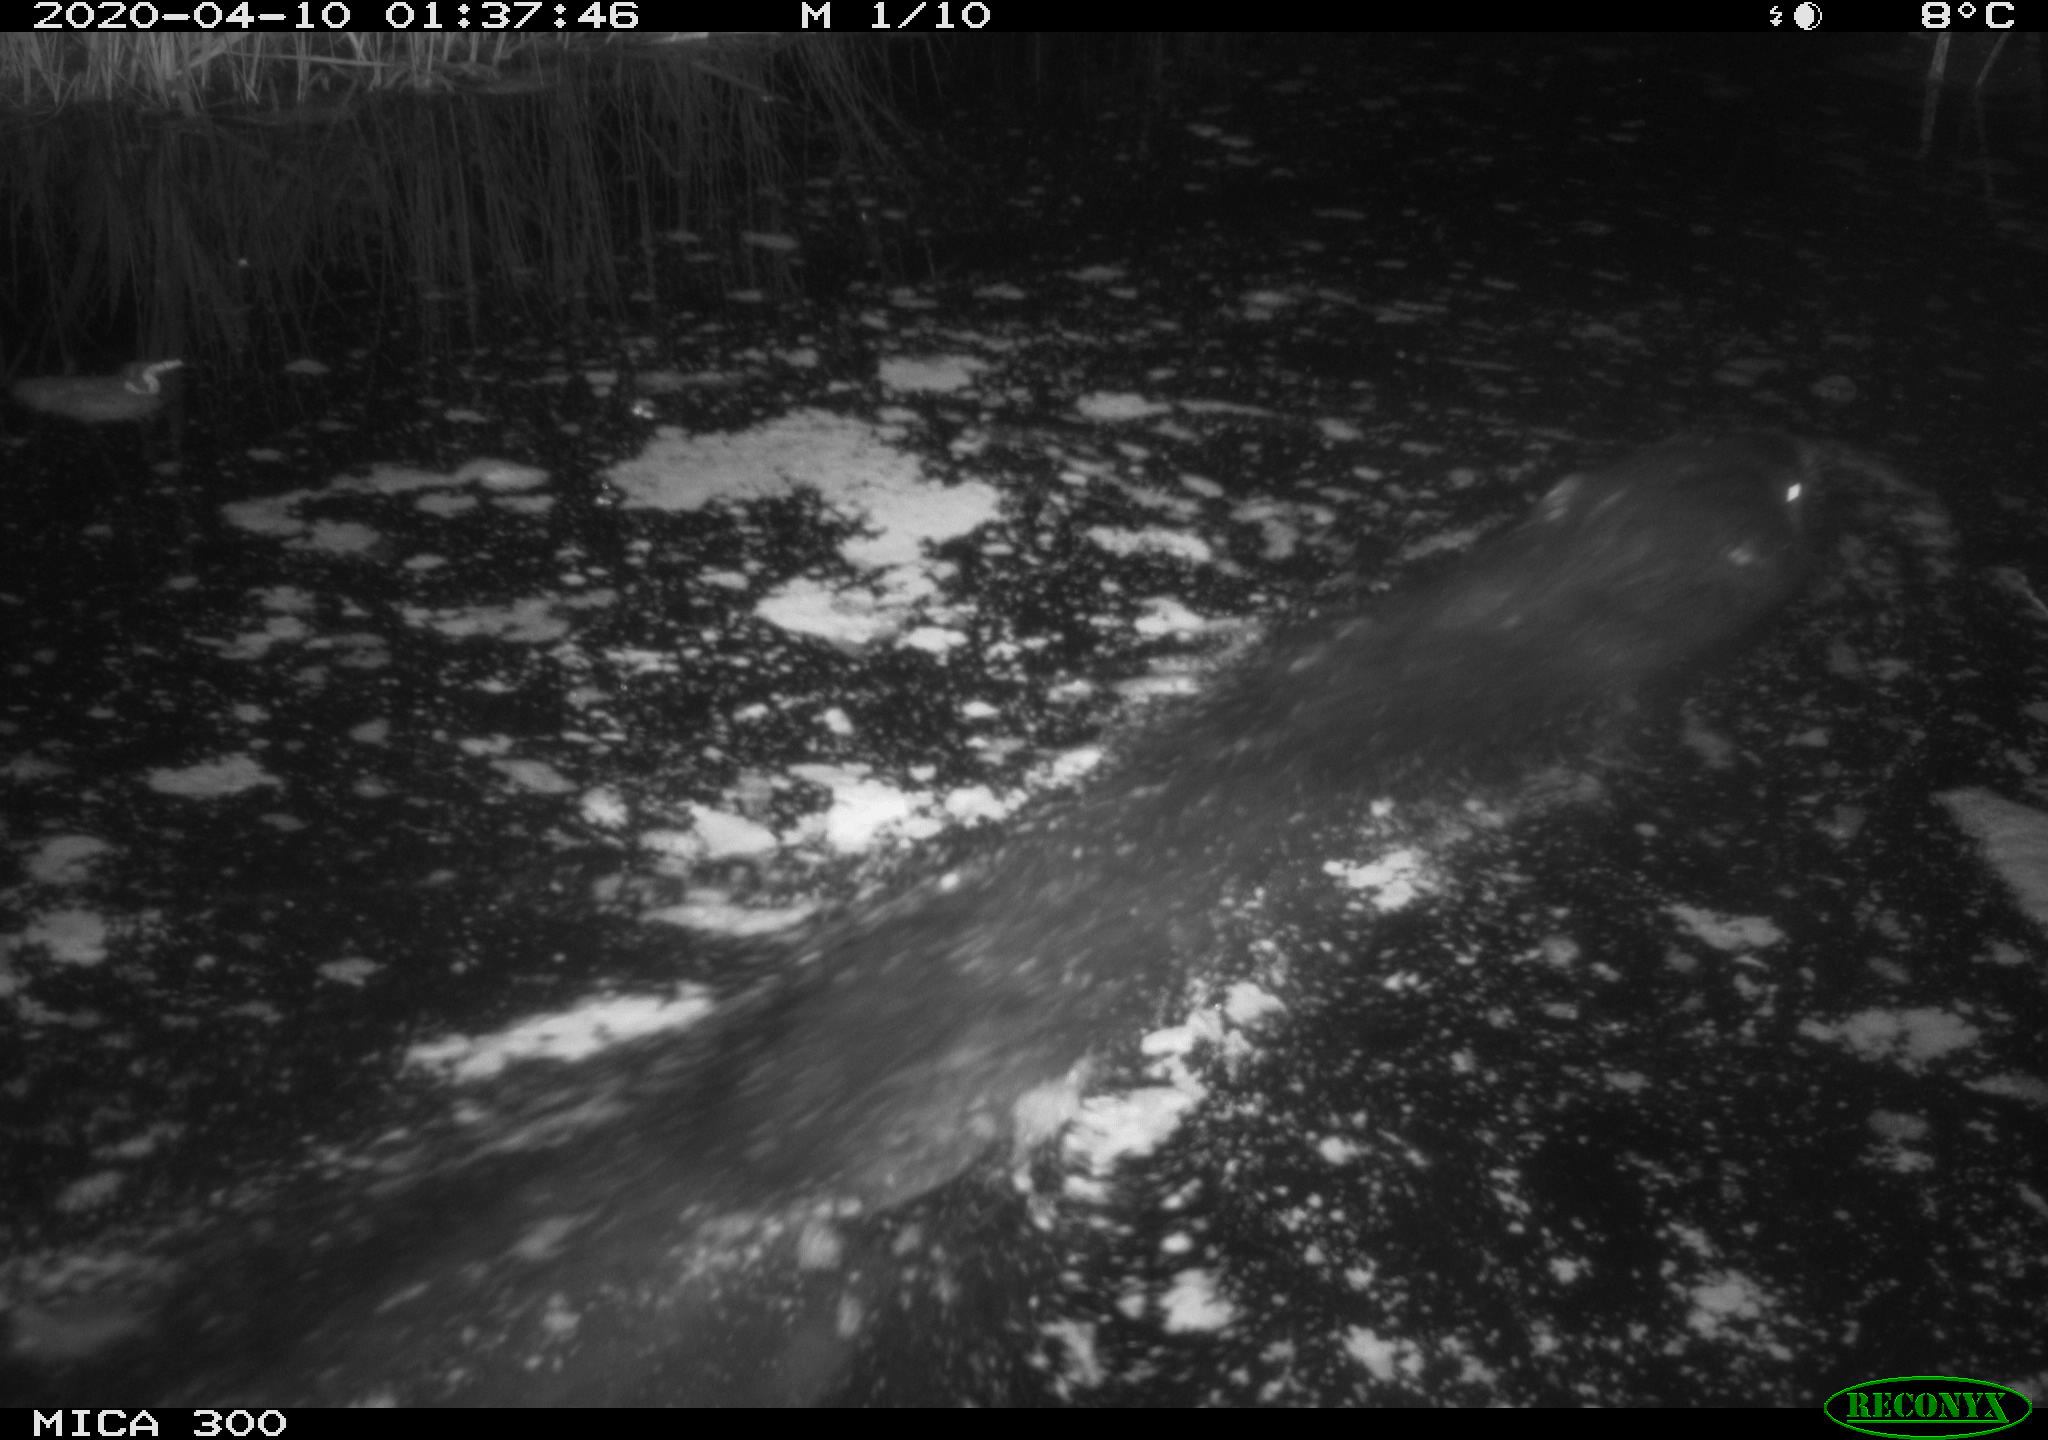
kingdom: Animalia
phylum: Chordata
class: Mammalia
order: Rodentia
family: Castoridae
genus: Castor
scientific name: Castor fiber
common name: Eurasian beaver
